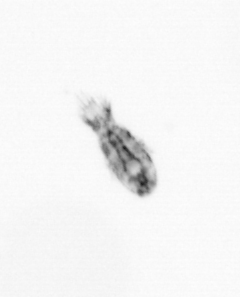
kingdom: Animalia
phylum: Arthropoda
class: Copepoda
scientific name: Copepoda
